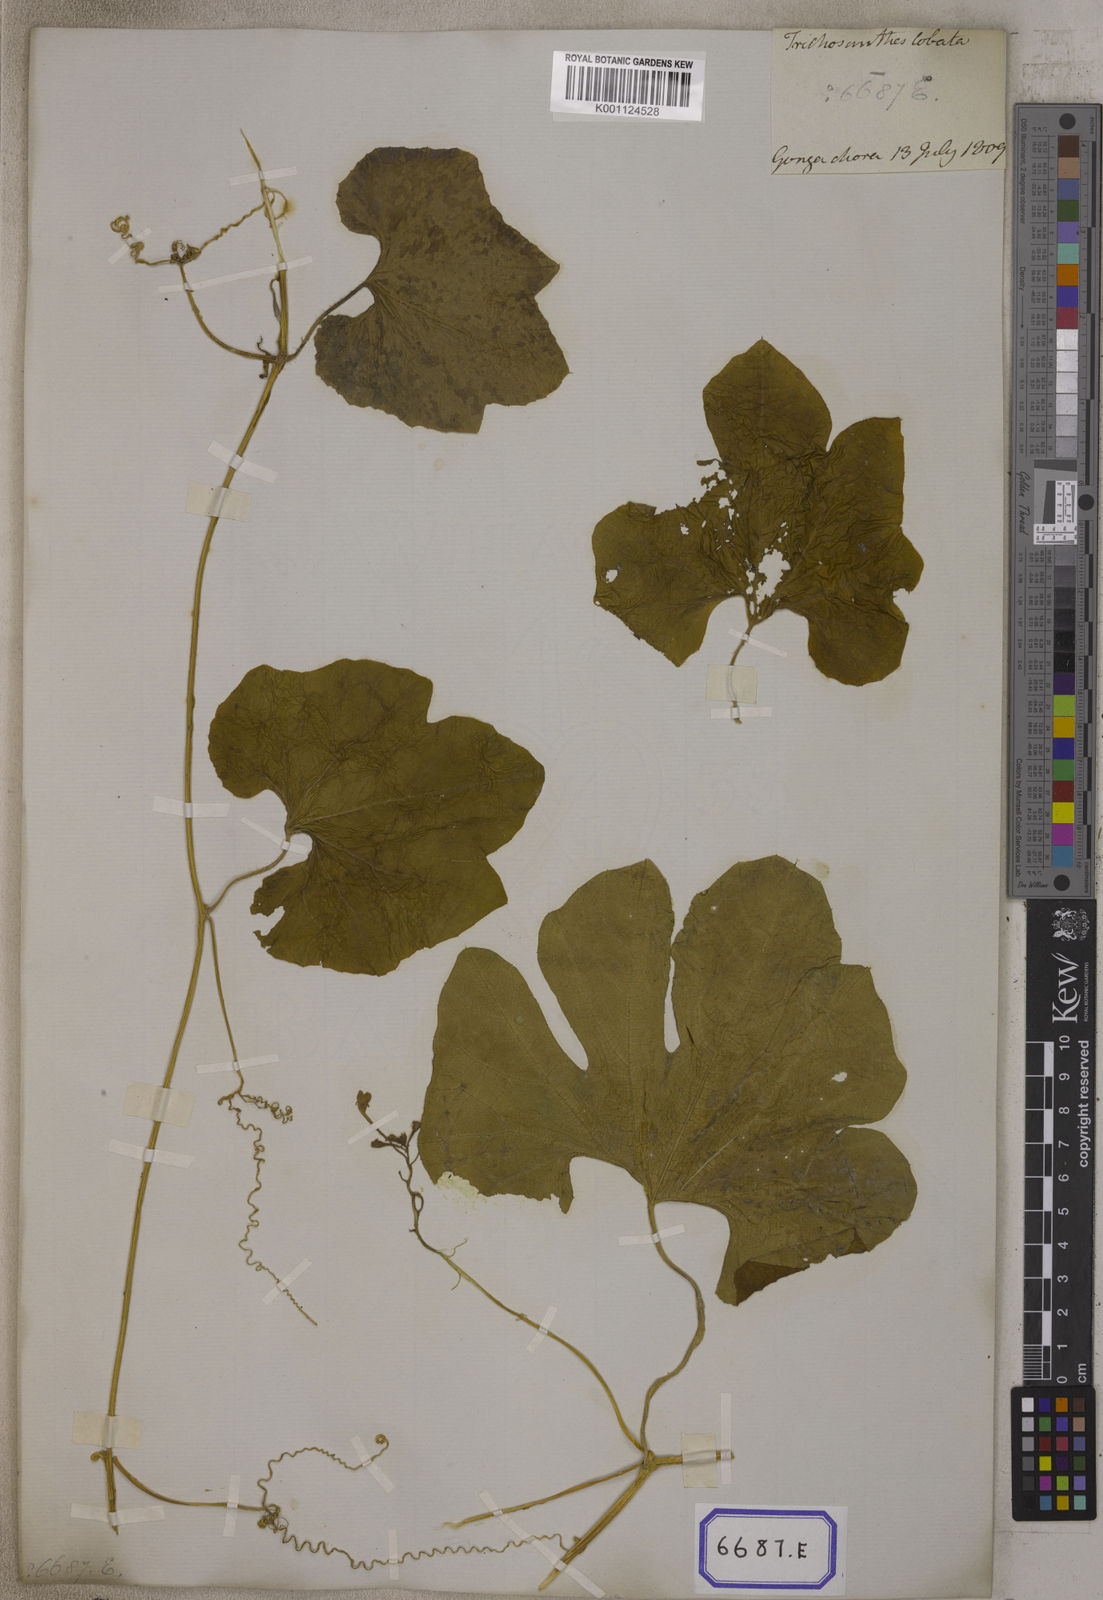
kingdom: Plantae
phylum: Tracheophyta
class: Magnoliopsida
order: Cucurbitales
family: Cucurbitaceae
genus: Trichosanthes
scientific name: Trichosanthes cucumerina
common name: Snakegourd
